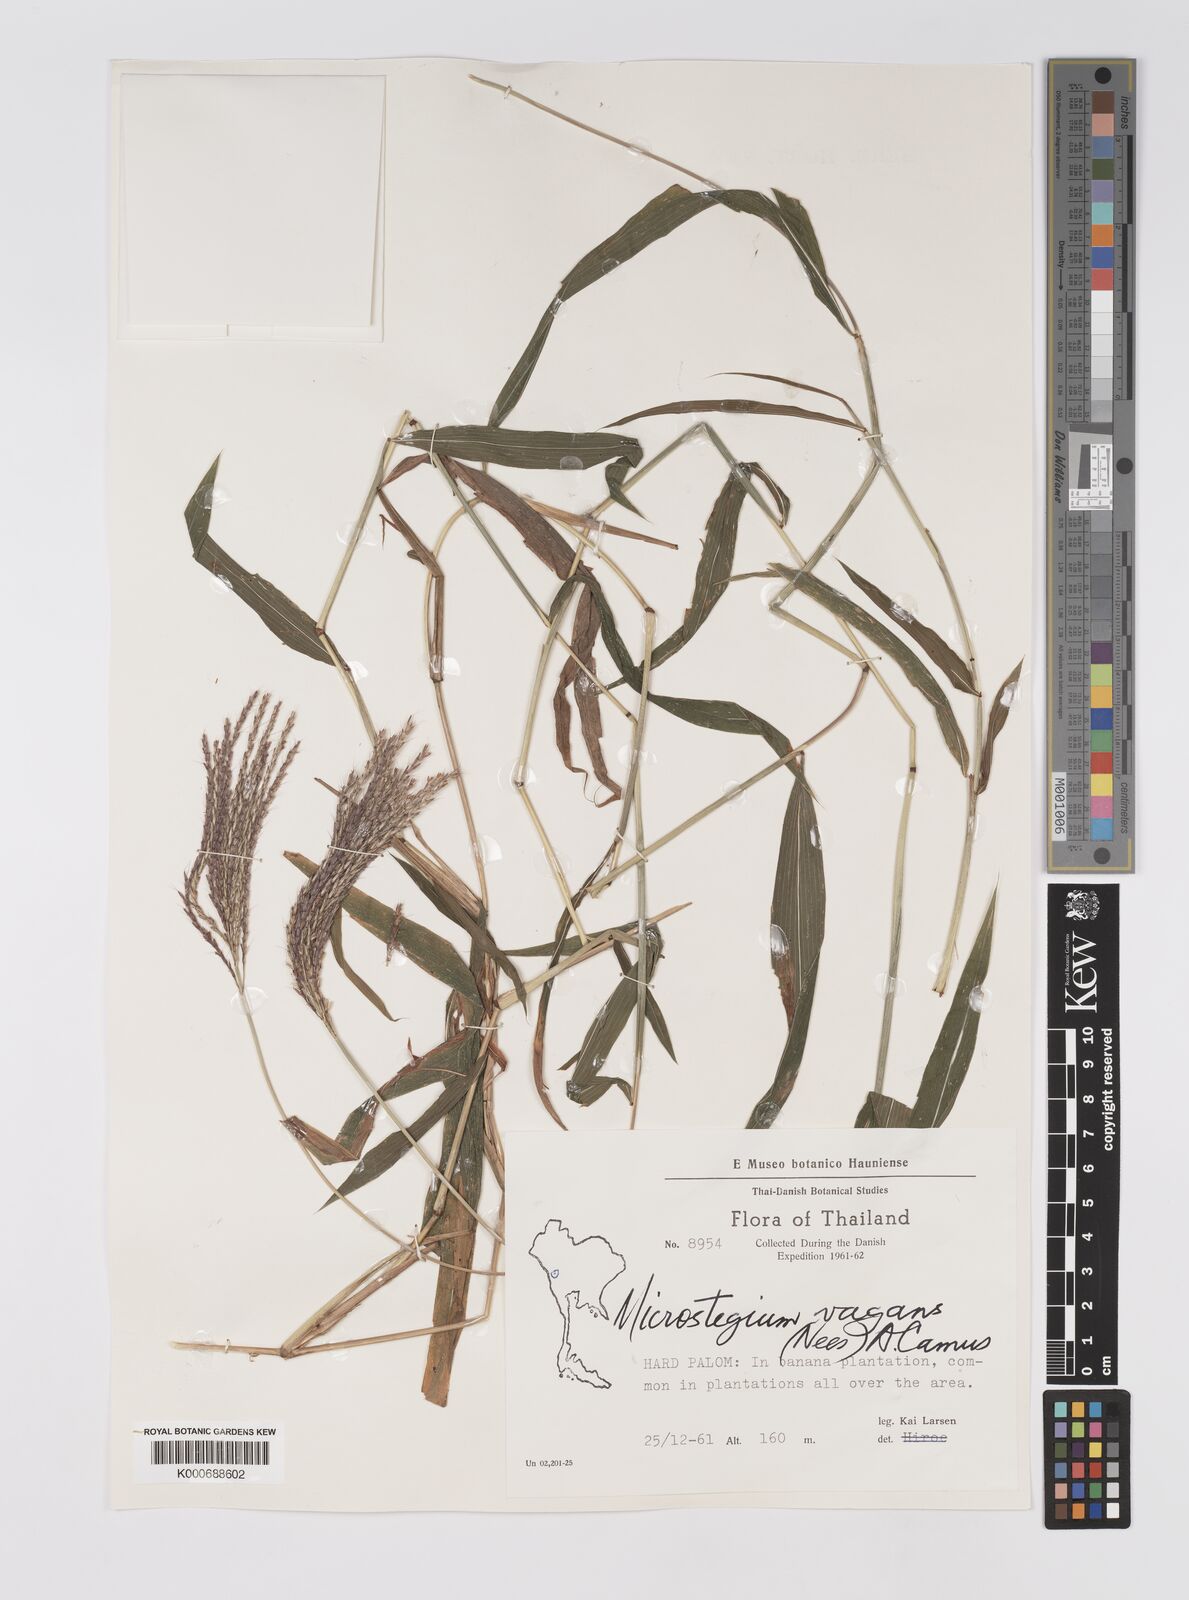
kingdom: Plantae
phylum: Tracheophyta
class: Liliopsida
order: Poales
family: Poaceae
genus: Microstegium
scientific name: Microstegium fasciculatum
